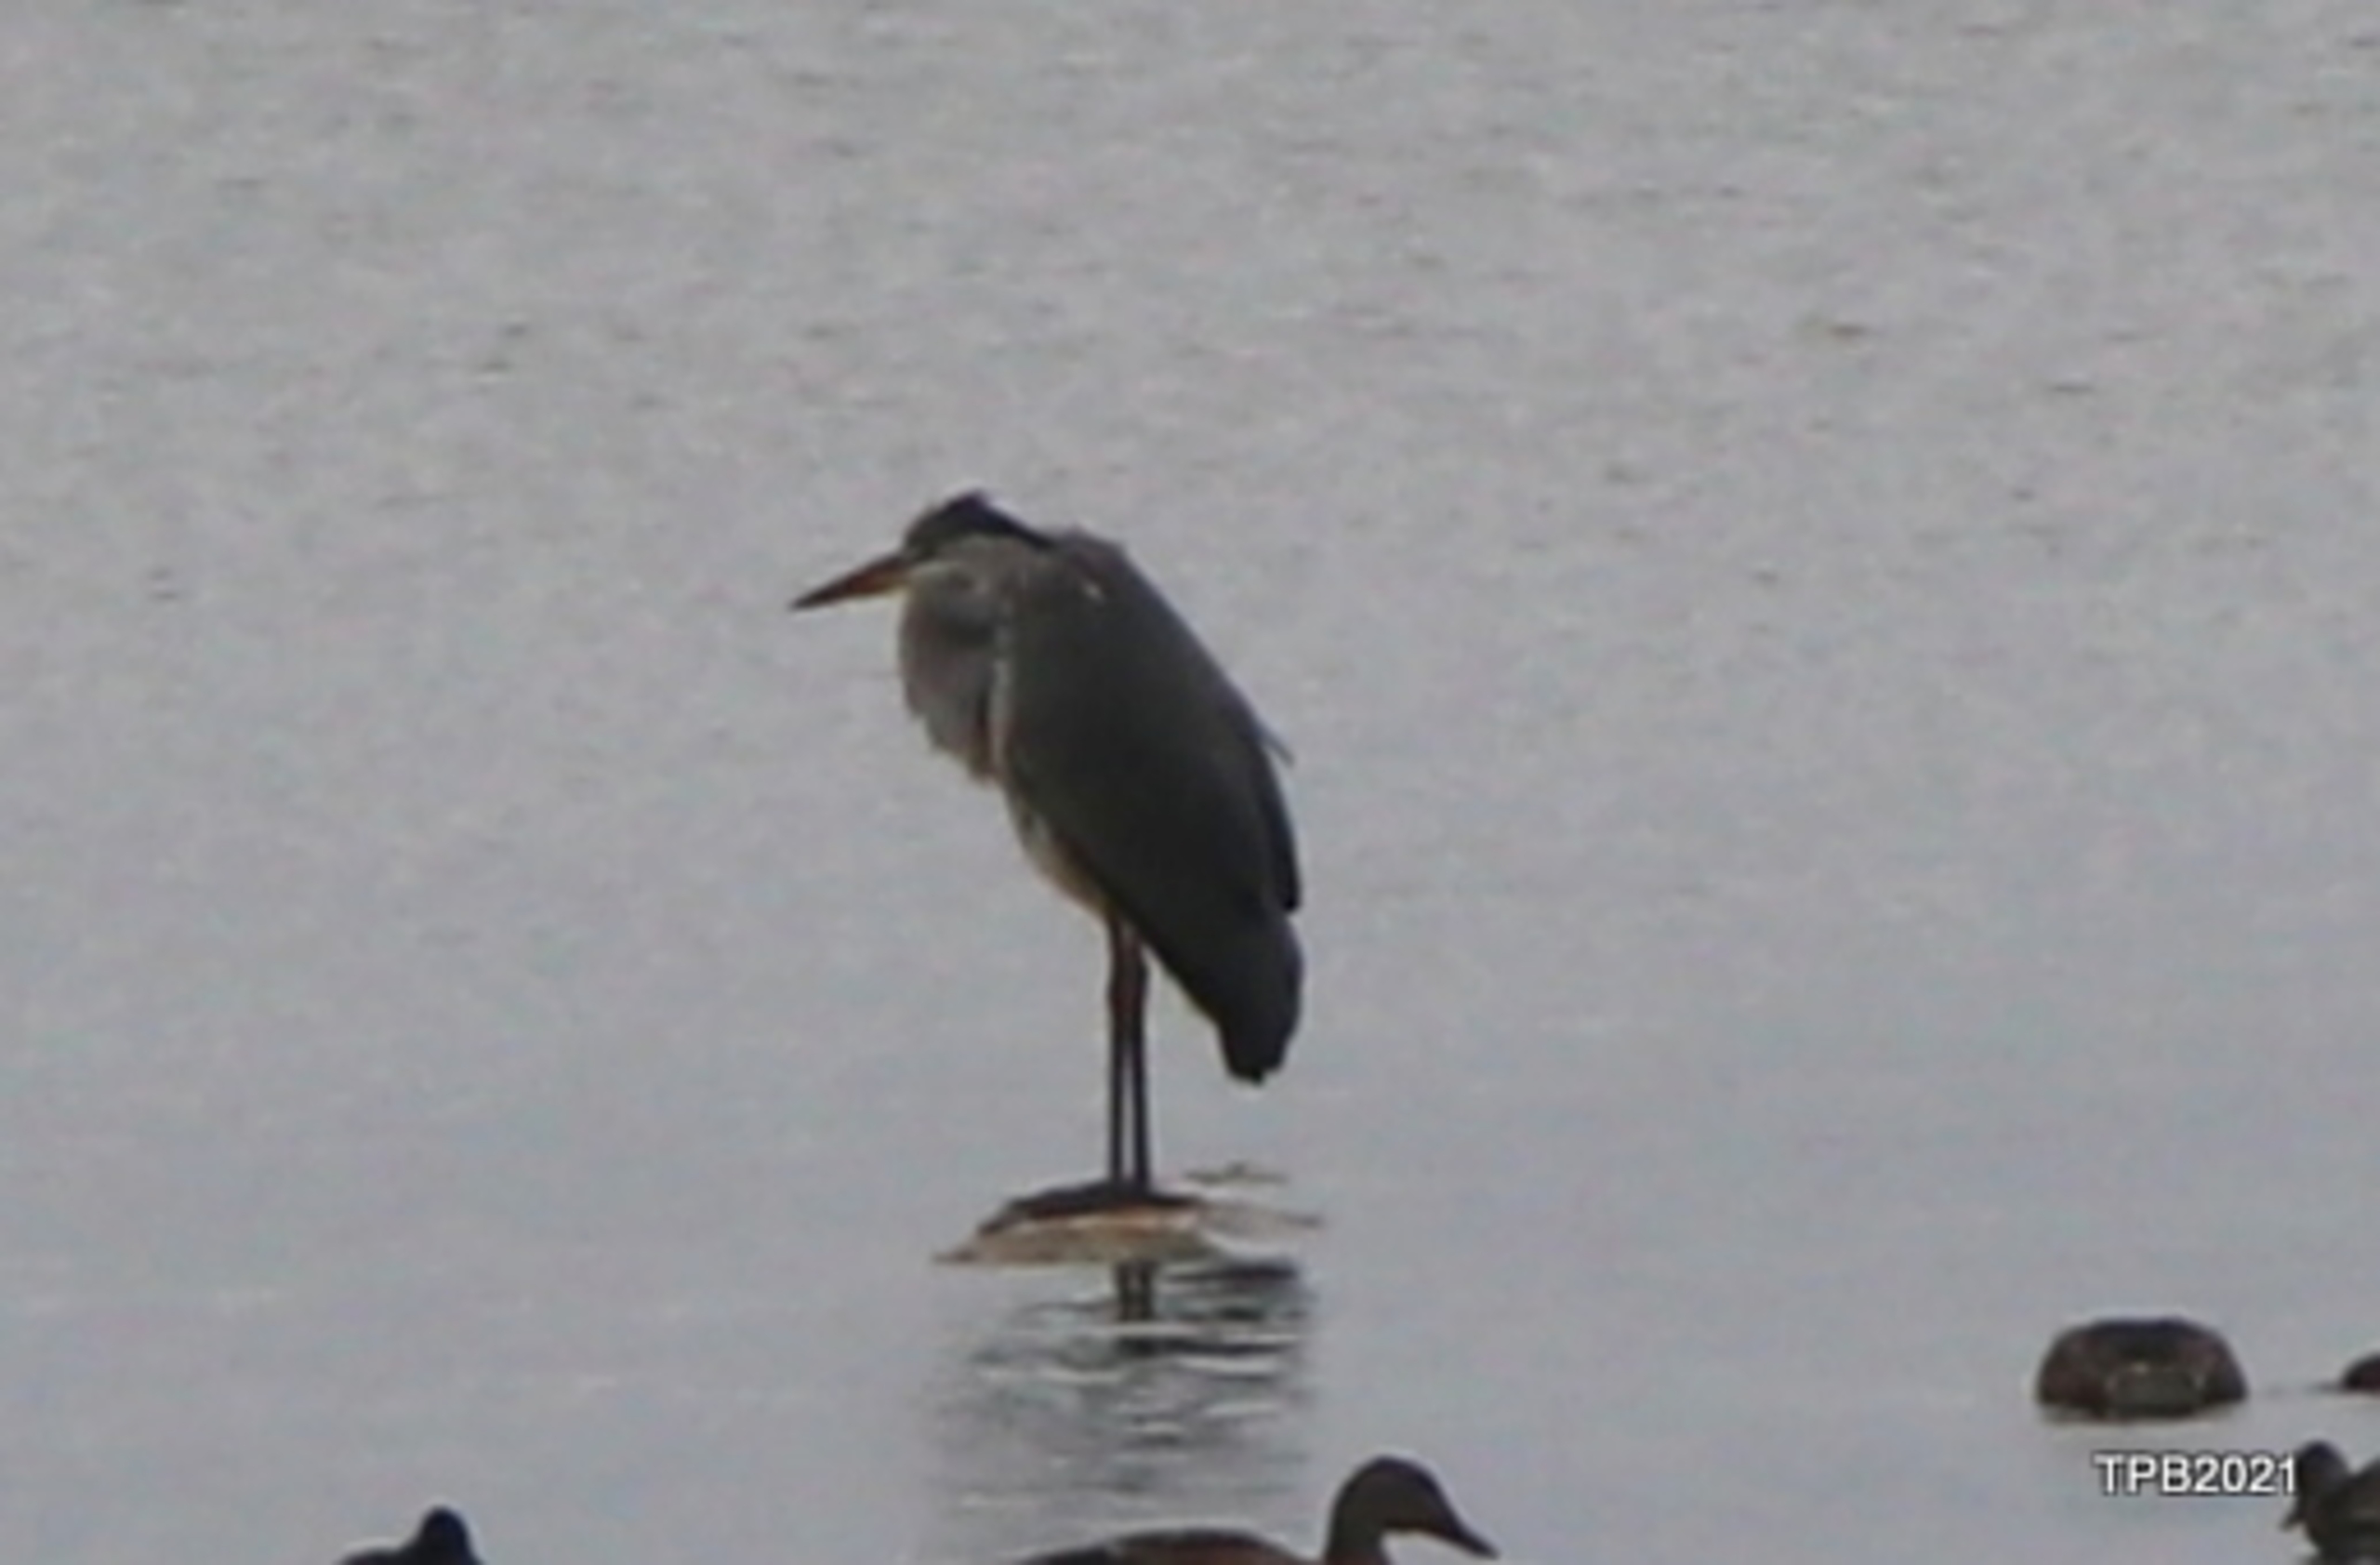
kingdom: Animalia
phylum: Chordata
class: Aves
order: Pelecaniformes
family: Ardeidae
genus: Ardea
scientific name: Ardea cinerea
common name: Fiskehejre
